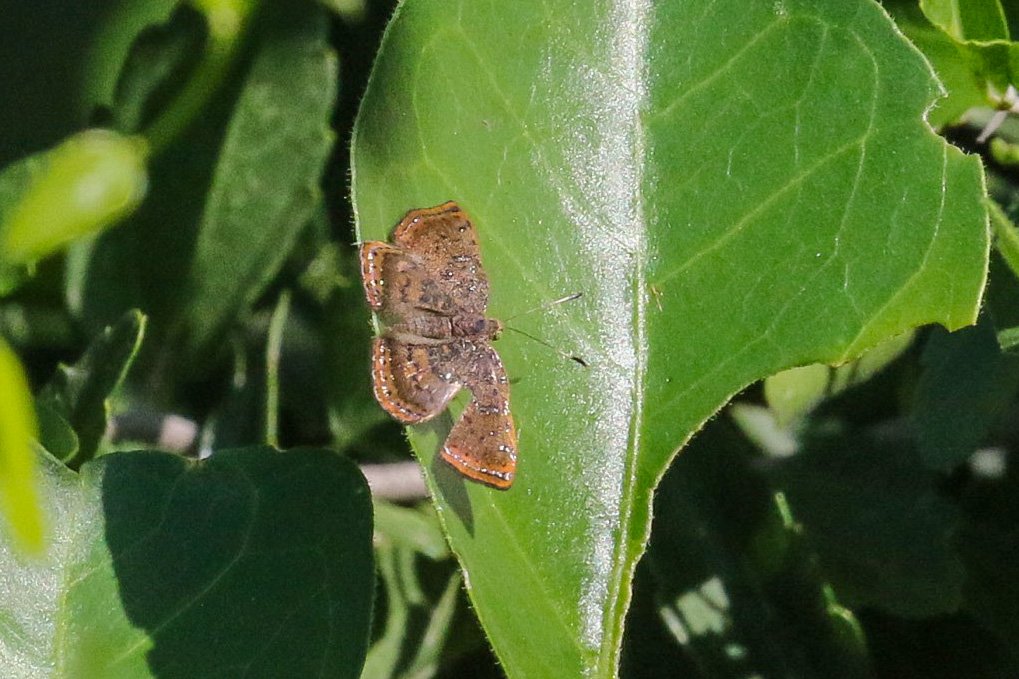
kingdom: Animalia
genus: Caria
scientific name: Caria ino
